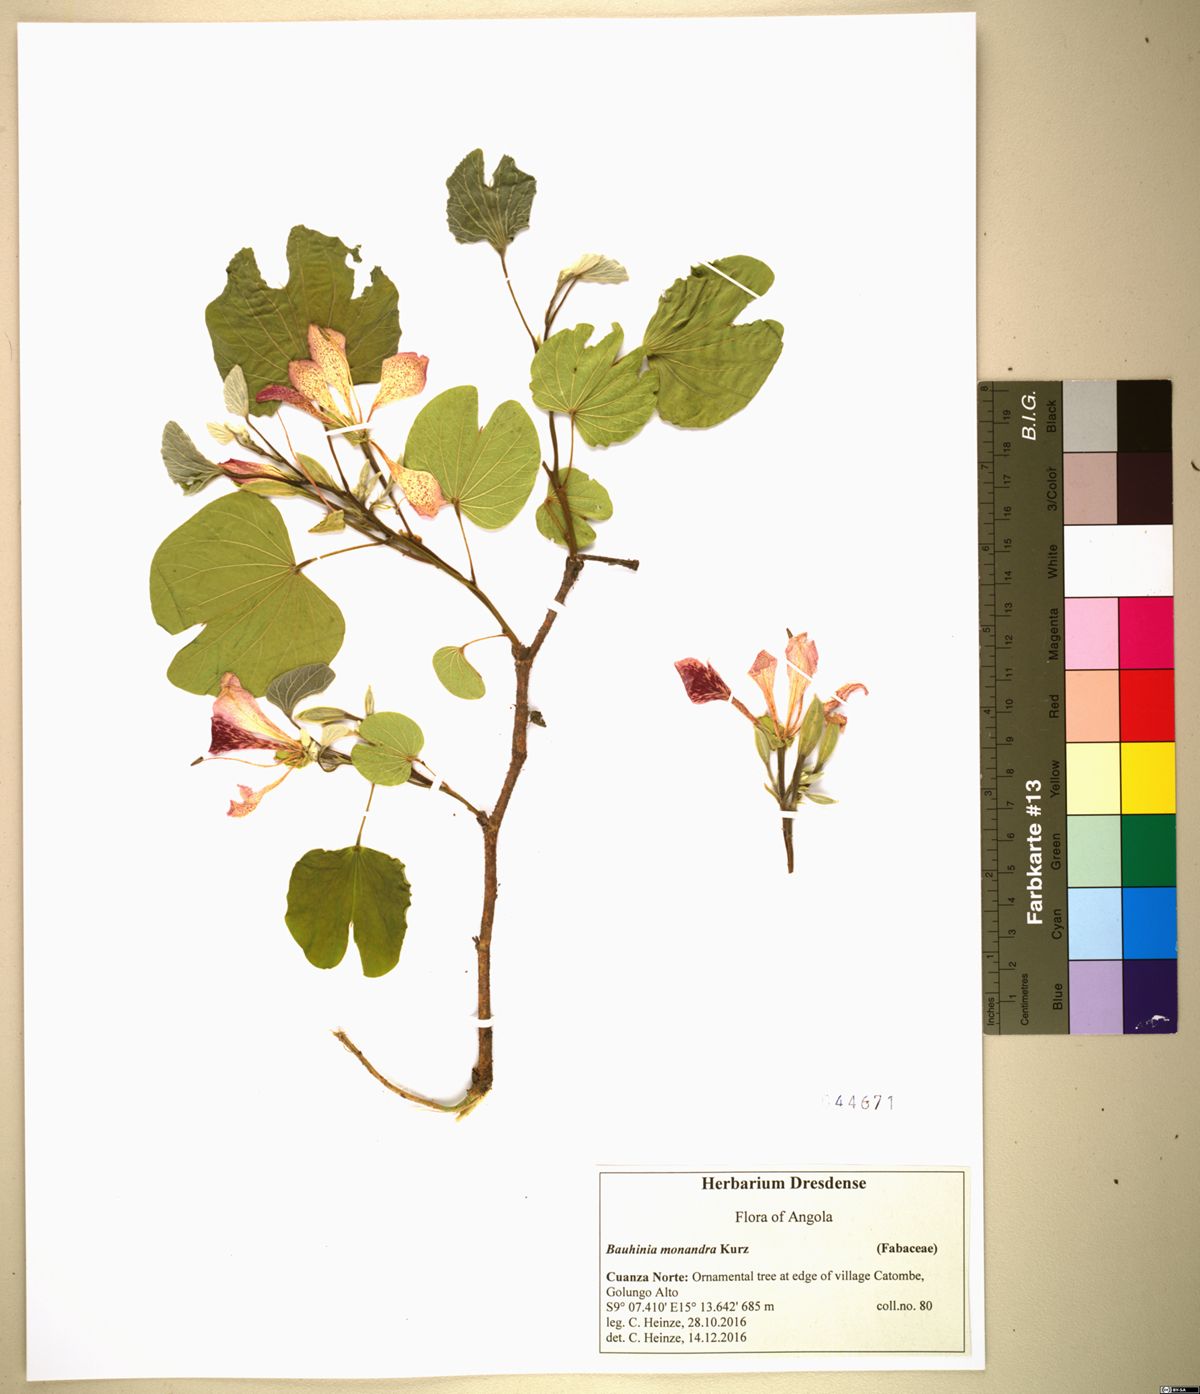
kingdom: Plantae
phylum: Tracheophyta
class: Magnoliopsida
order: Fabales
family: Fabaceae
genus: Bauhinia
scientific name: Bauhinia monandra
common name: Napoleon's plume
